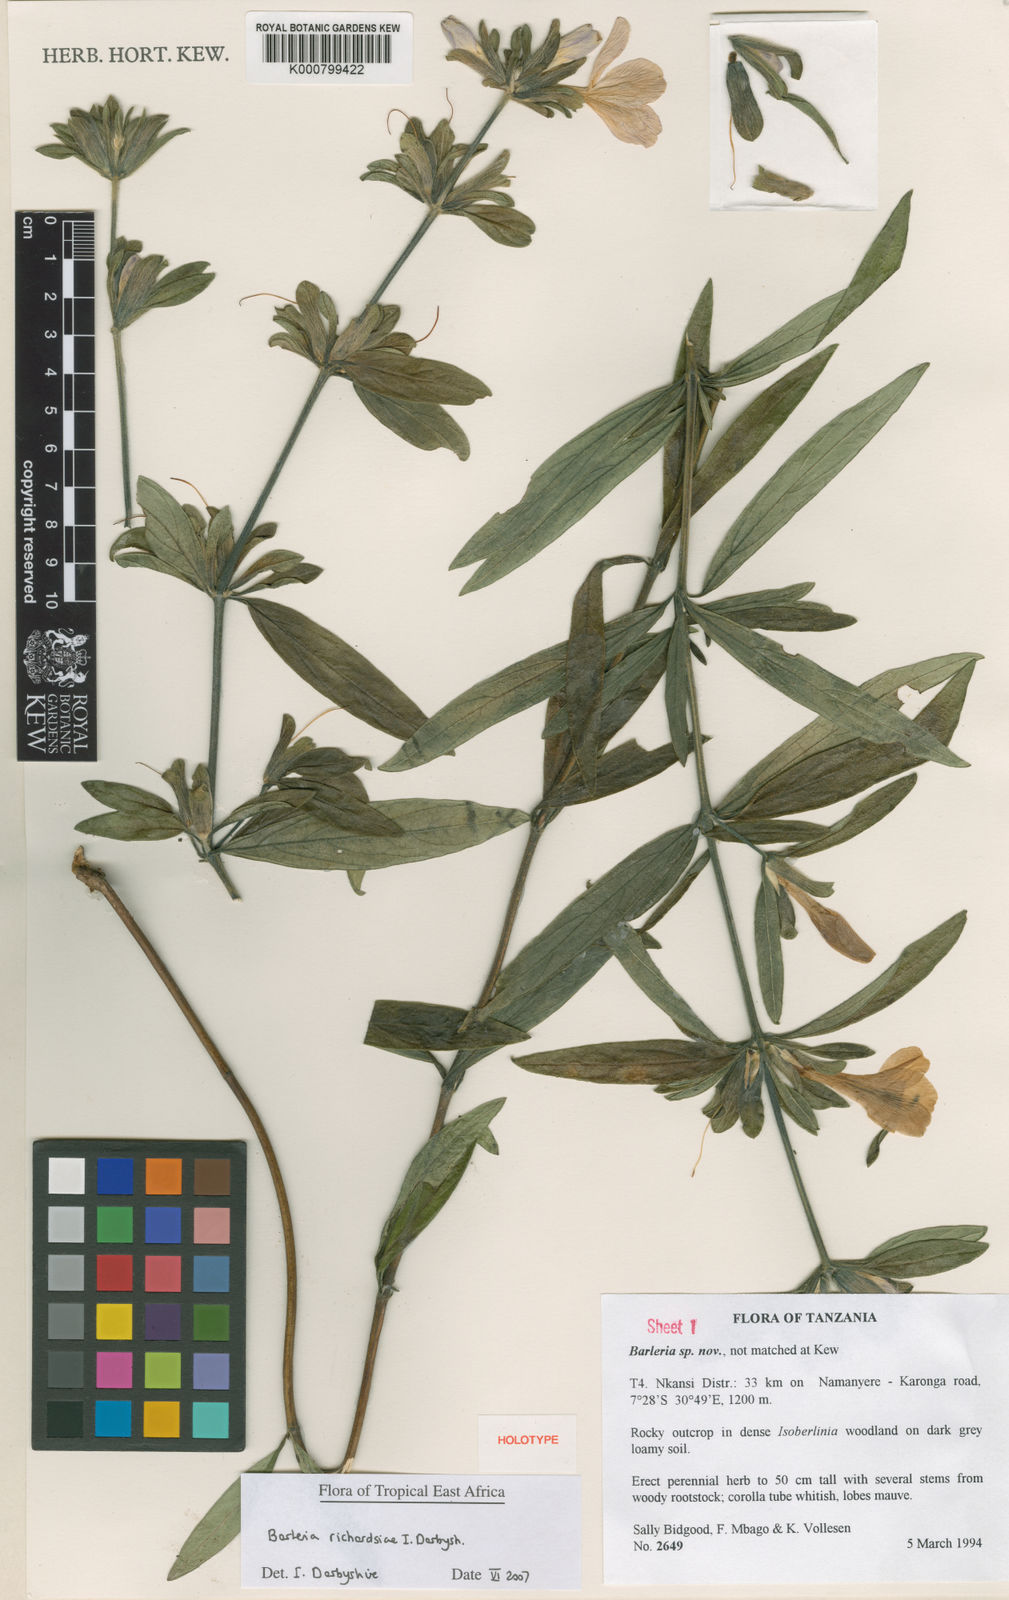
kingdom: Plantae
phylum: Tracheophyta
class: Magnoliopsida
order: Lamiales
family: Acanthaceae
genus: Barleria
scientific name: Barleria richardsiae
